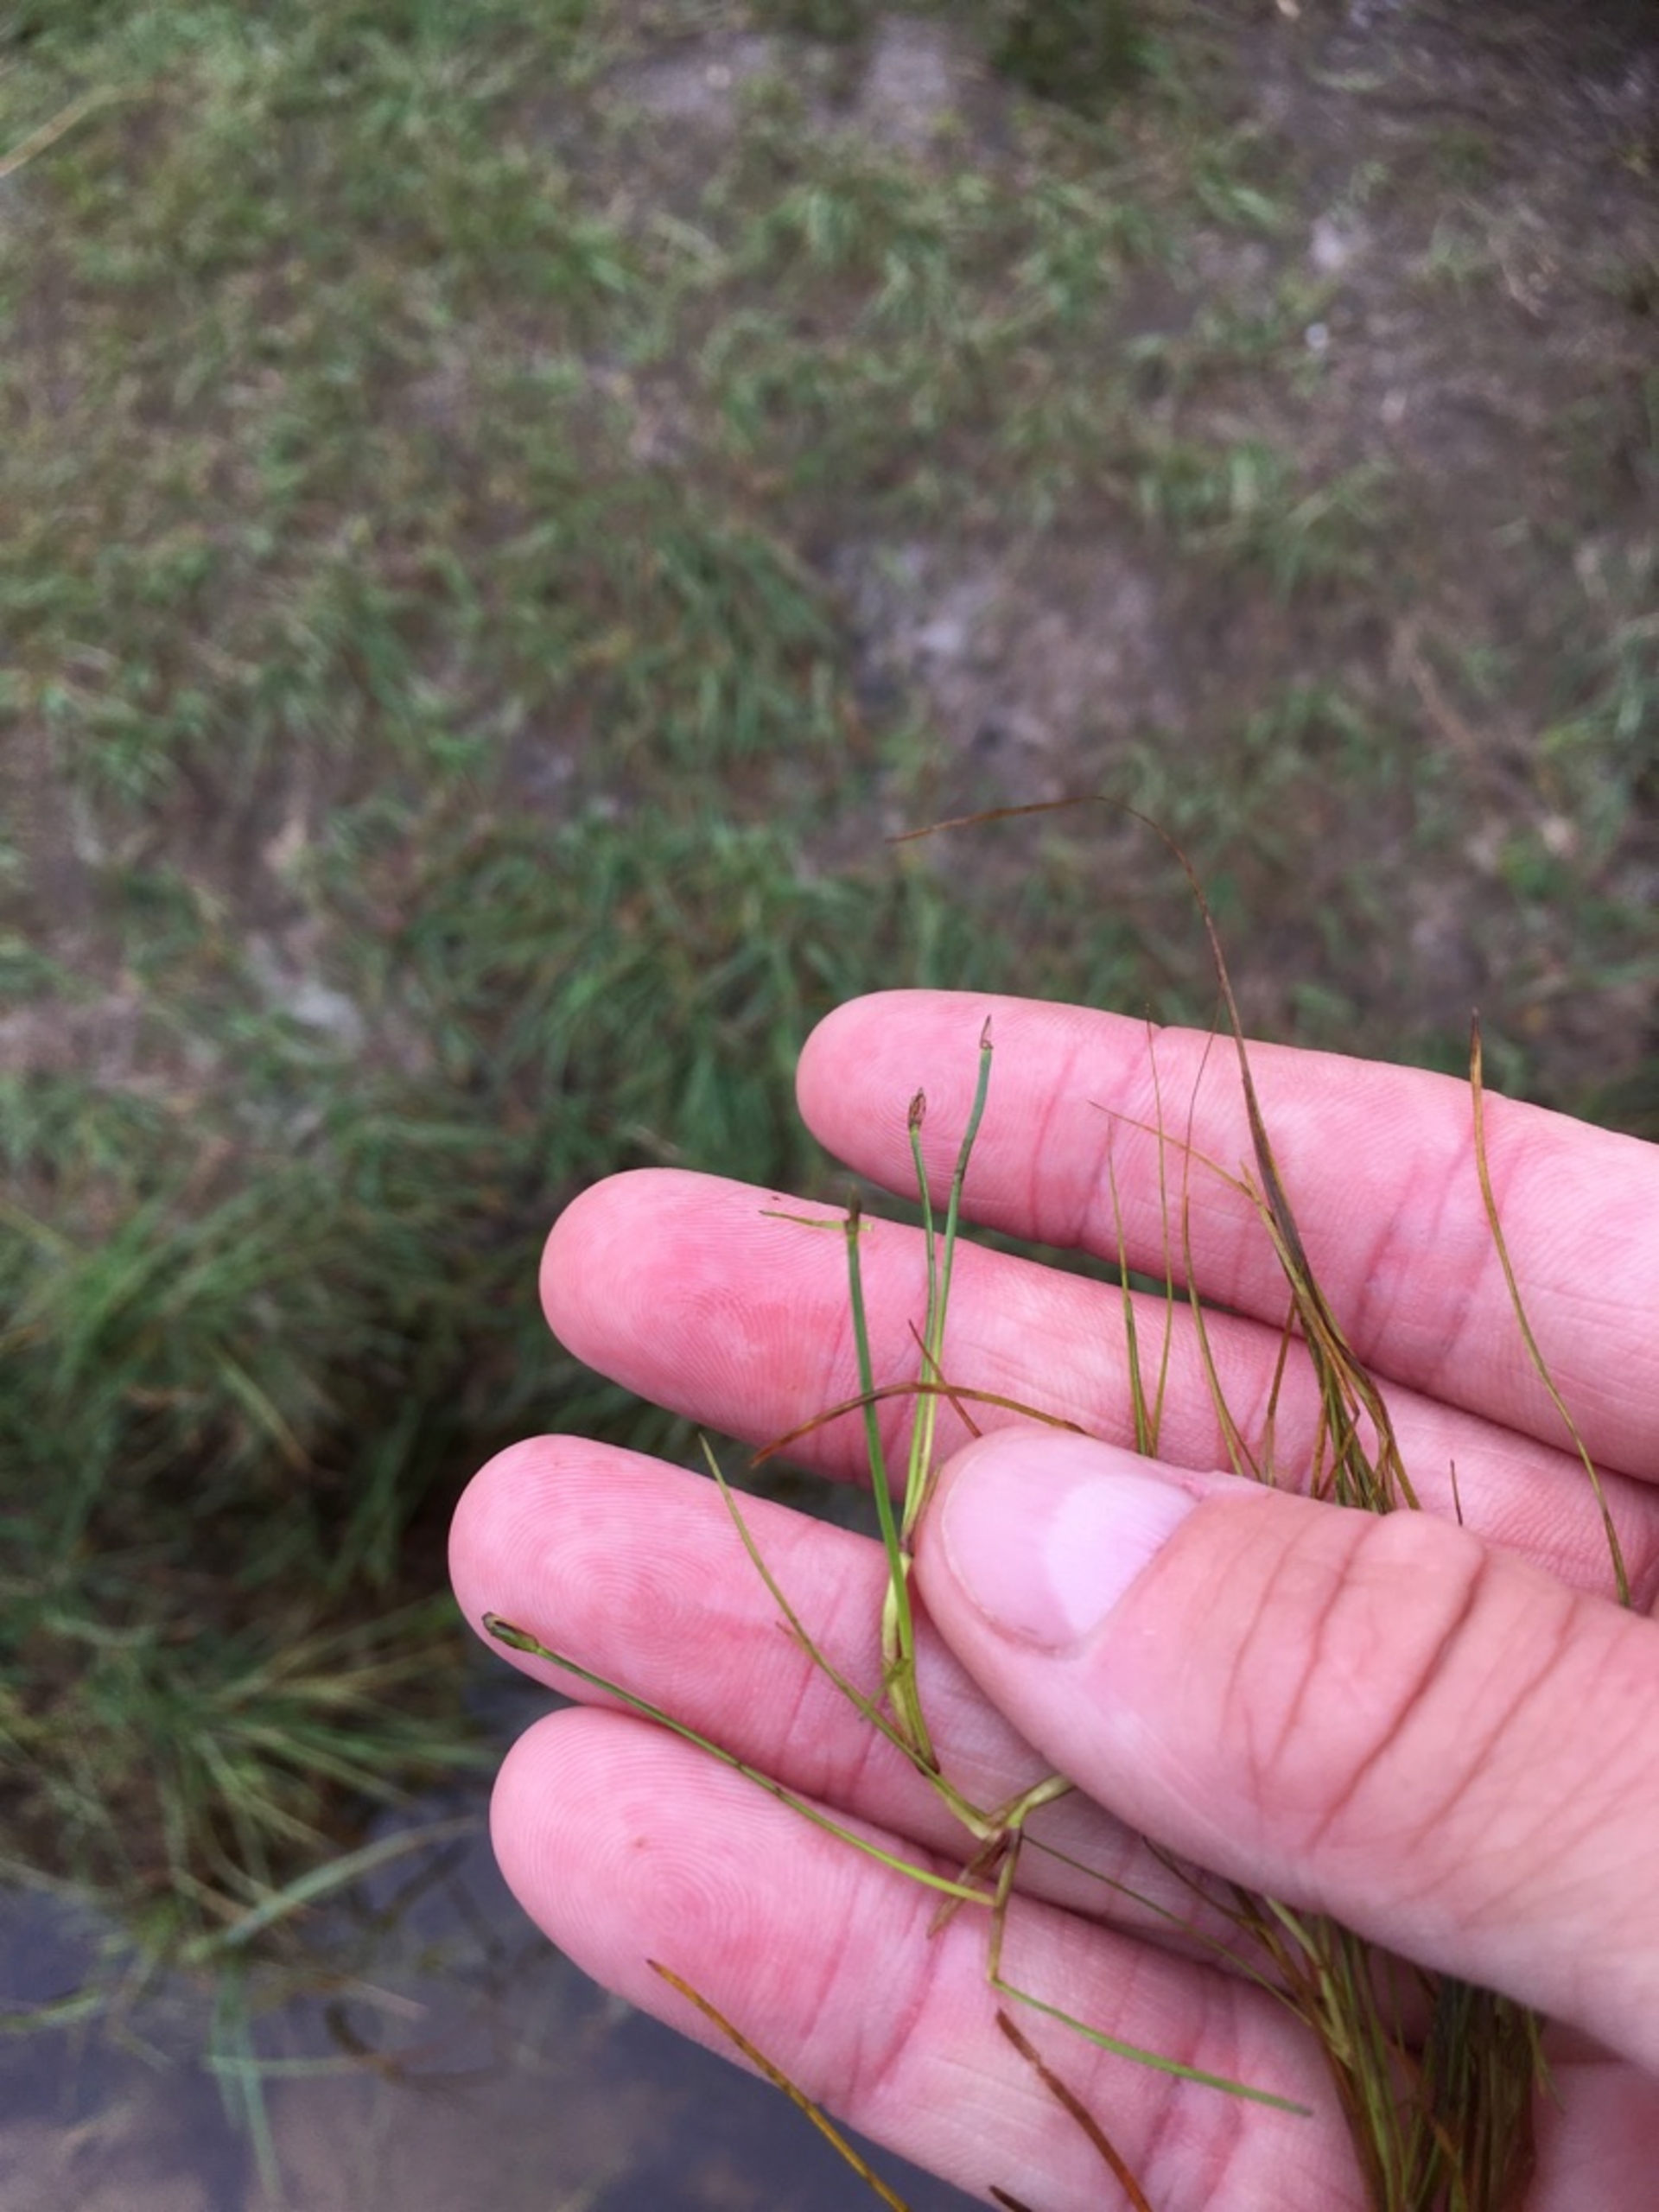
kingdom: Plantae
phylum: Tracheophyta
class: Liliopsida
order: Poales
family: Cyperaceae
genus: Isolepis
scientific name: Isolepis fluitans
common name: Flydende kogleaks
